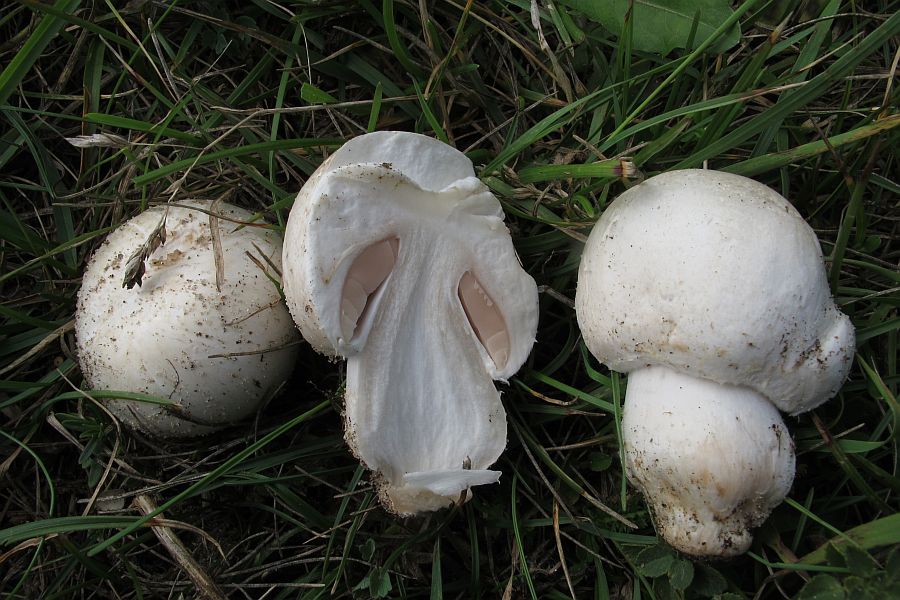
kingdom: Fungi
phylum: Basidiomycota
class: Agaricomycetes
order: Agaricales
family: Agaricaceae
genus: Agaricus
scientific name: Agaricus litoralis
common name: kyst-champignon
